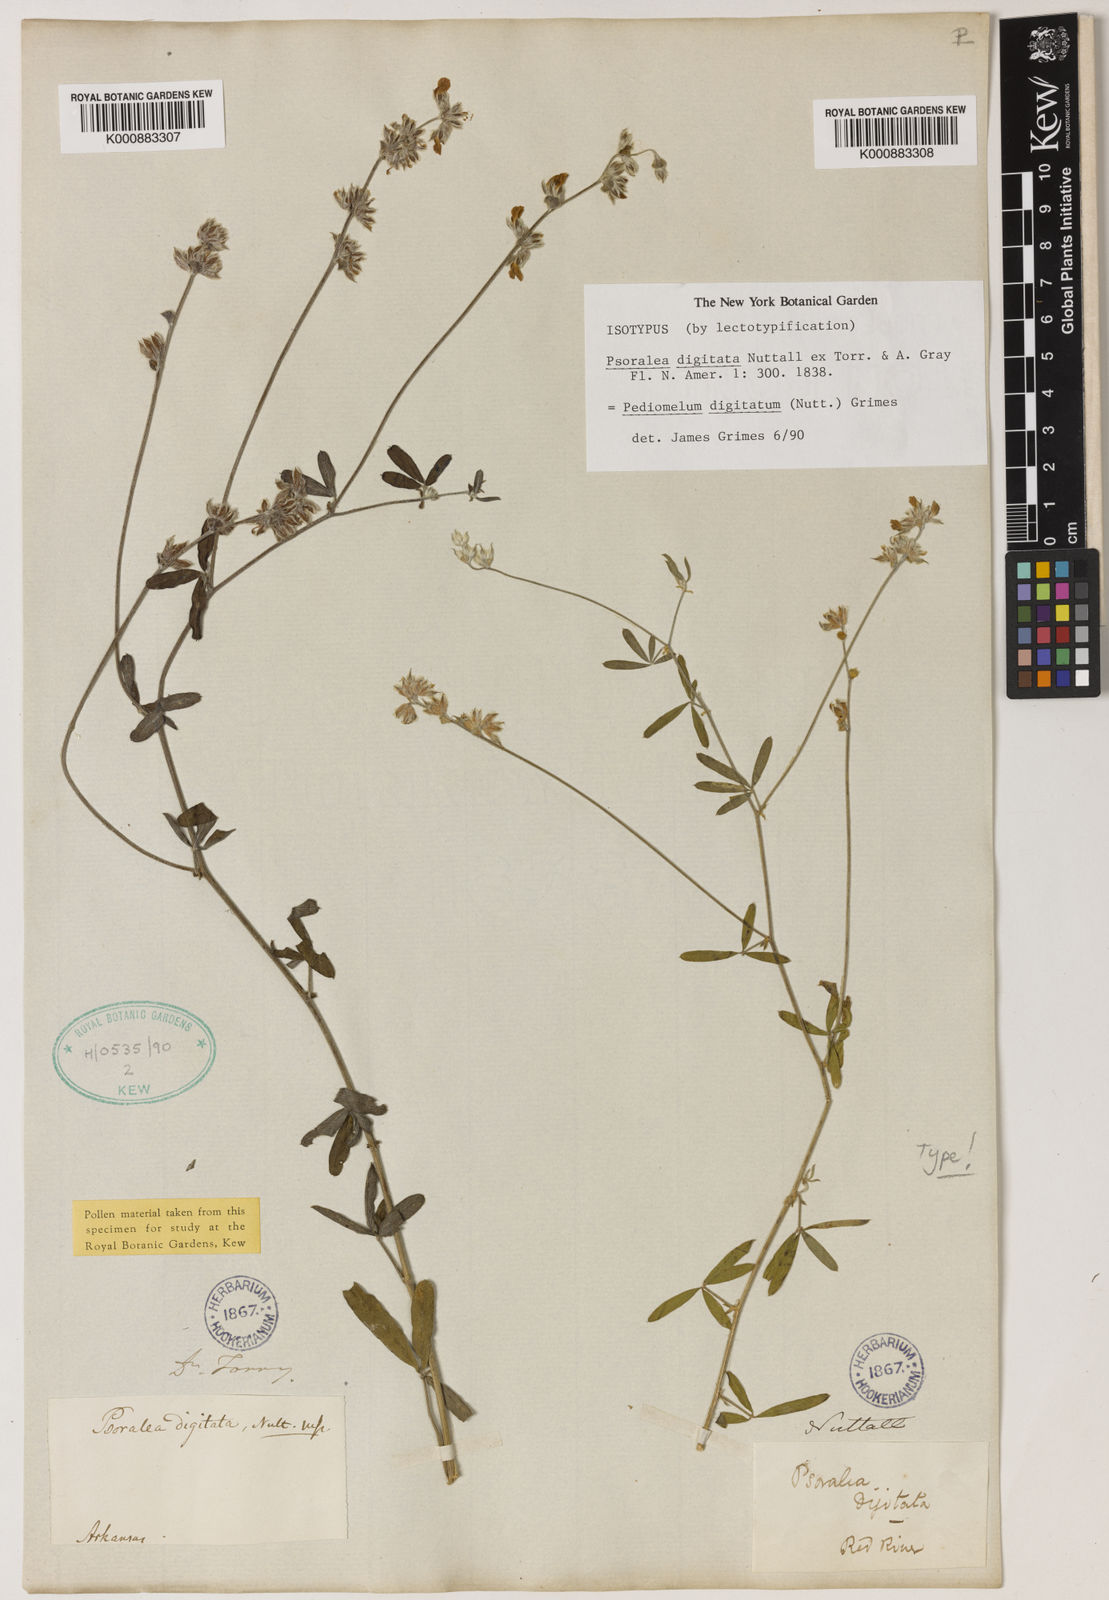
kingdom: Plantae
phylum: Tracheophyta
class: Magnoliopsida
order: Fabales
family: Fabaceae
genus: Pediomelum
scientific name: Pediomelum
